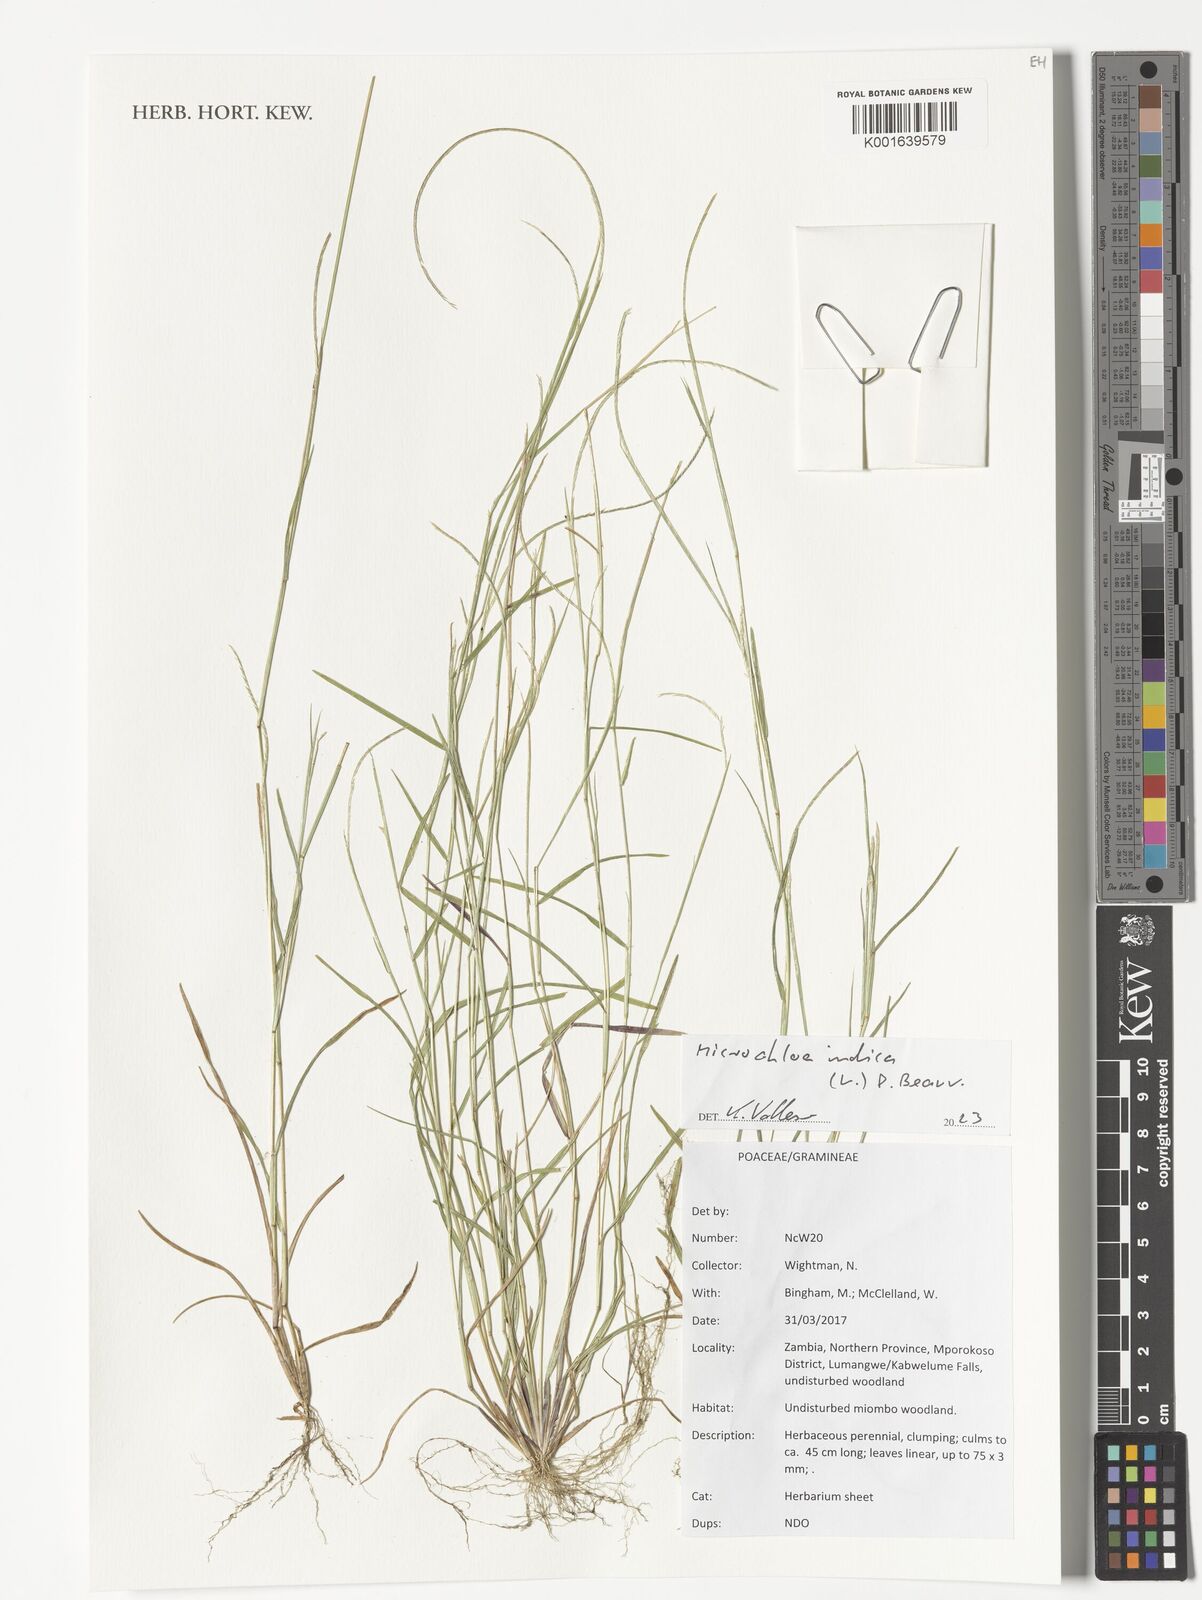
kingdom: Plantae
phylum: Tracheophyta
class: Liliopsida
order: Poales
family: Poaceae
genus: Microchloa
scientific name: Microchloa indica
